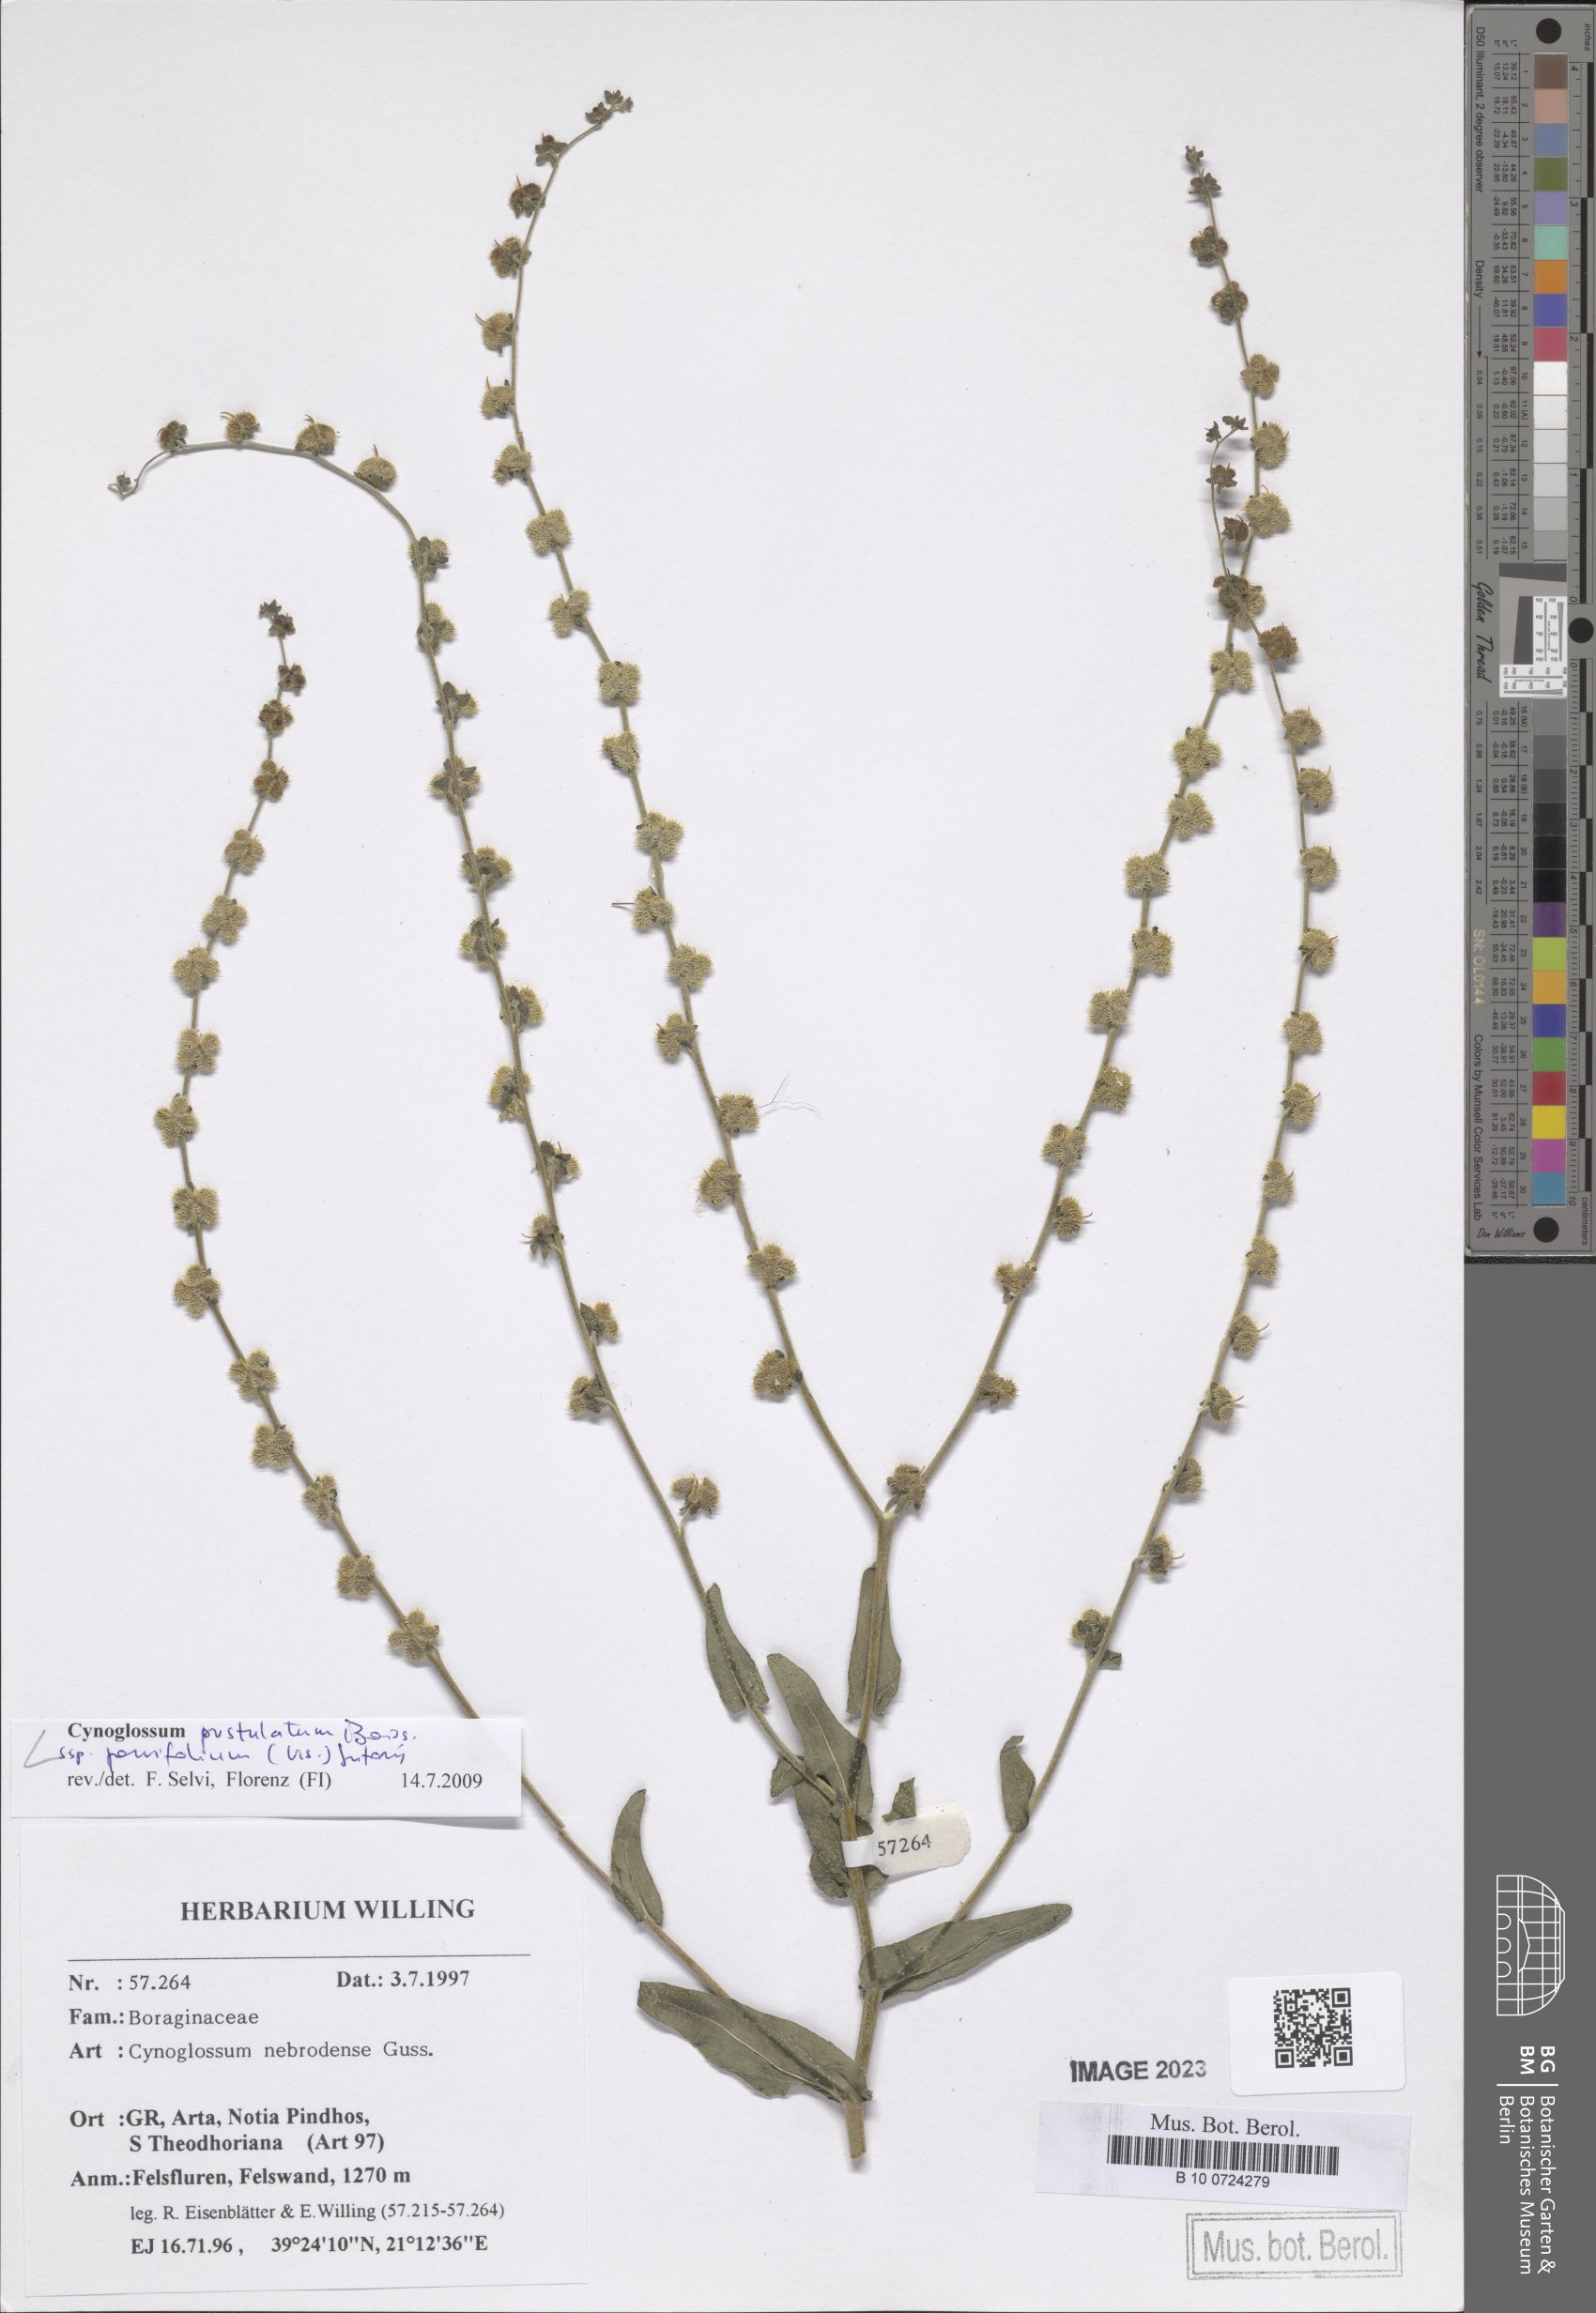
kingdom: Plantae
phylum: Tracheophyta
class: Magnoliopsida
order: Boraginales
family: Boraginaceae
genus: Cynoglossum
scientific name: Cynoglossum pustulatum
